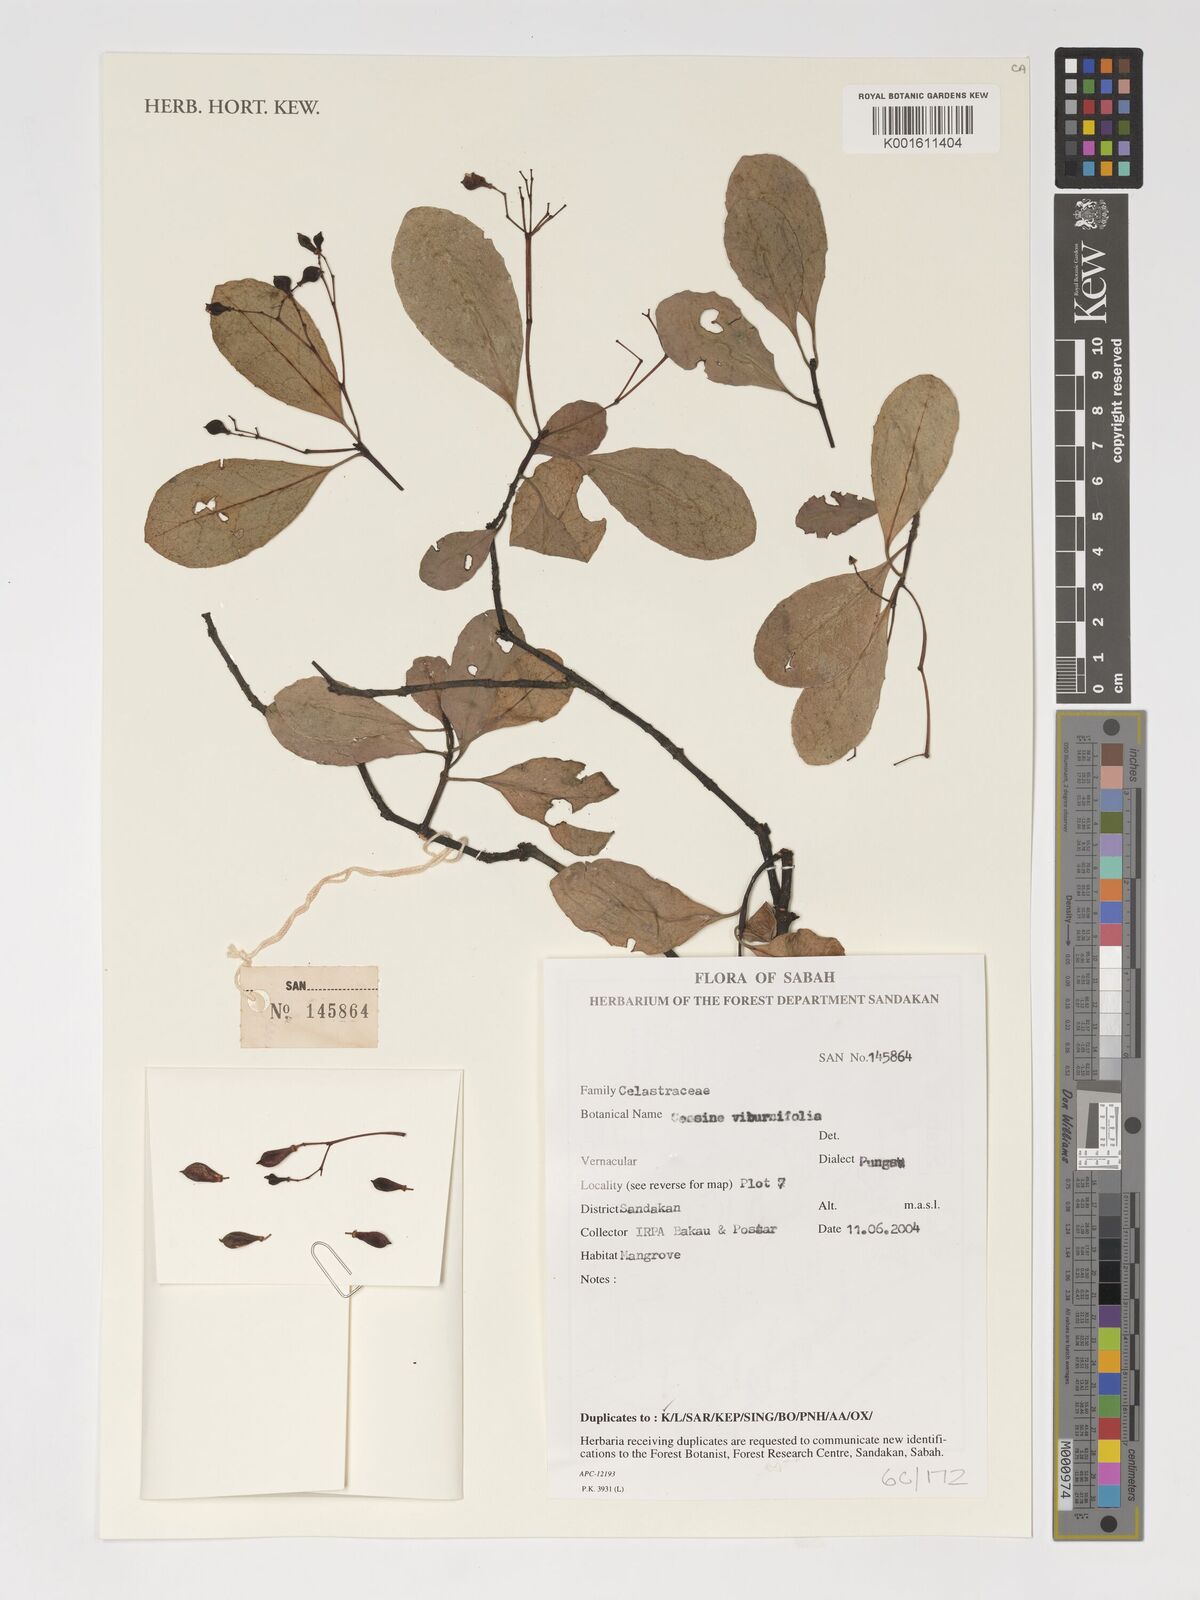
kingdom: Plantae
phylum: Tracheophyta
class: Magnoliopsida
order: Celastrales
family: Celastraceae
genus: Elaeodendron
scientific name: Elaeodendron viburnifolium
